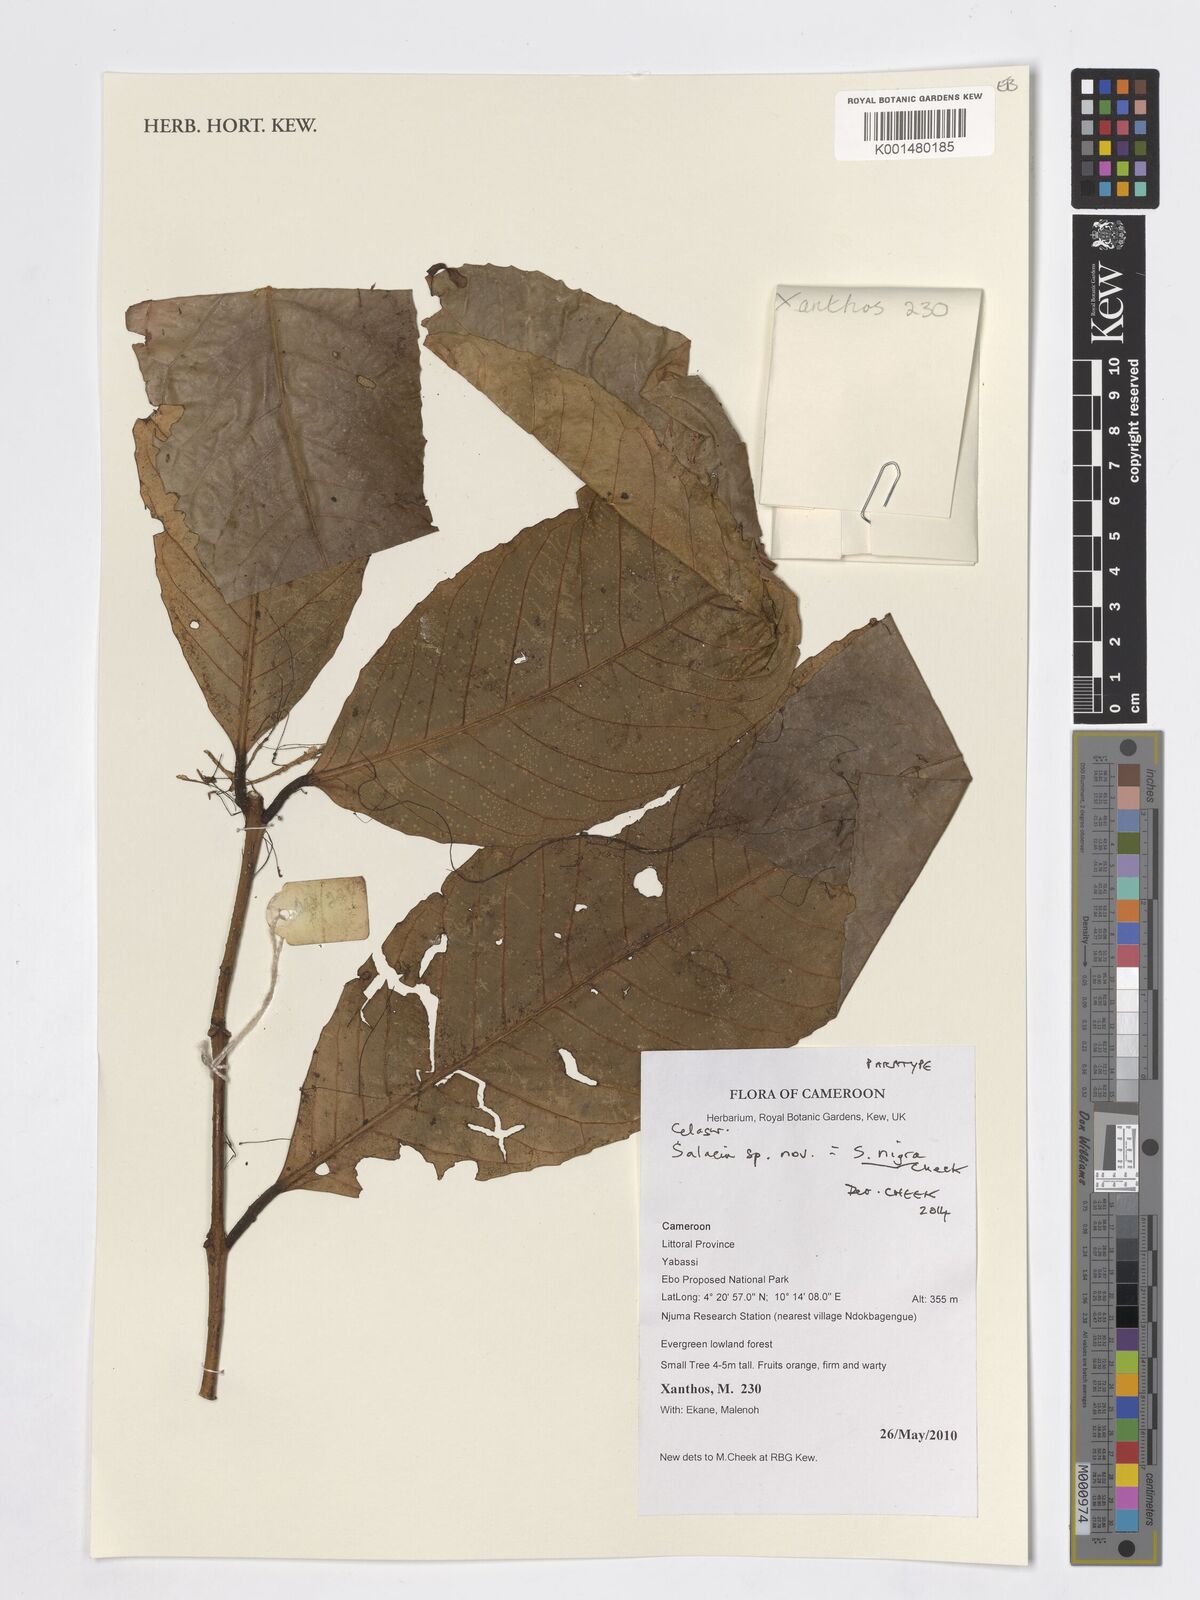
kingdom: Plantae
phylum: Tracheophyta
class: Magnoliopsida
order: Celastrales
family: Celastraceae
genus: Salacia
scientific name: Salacia nigra
